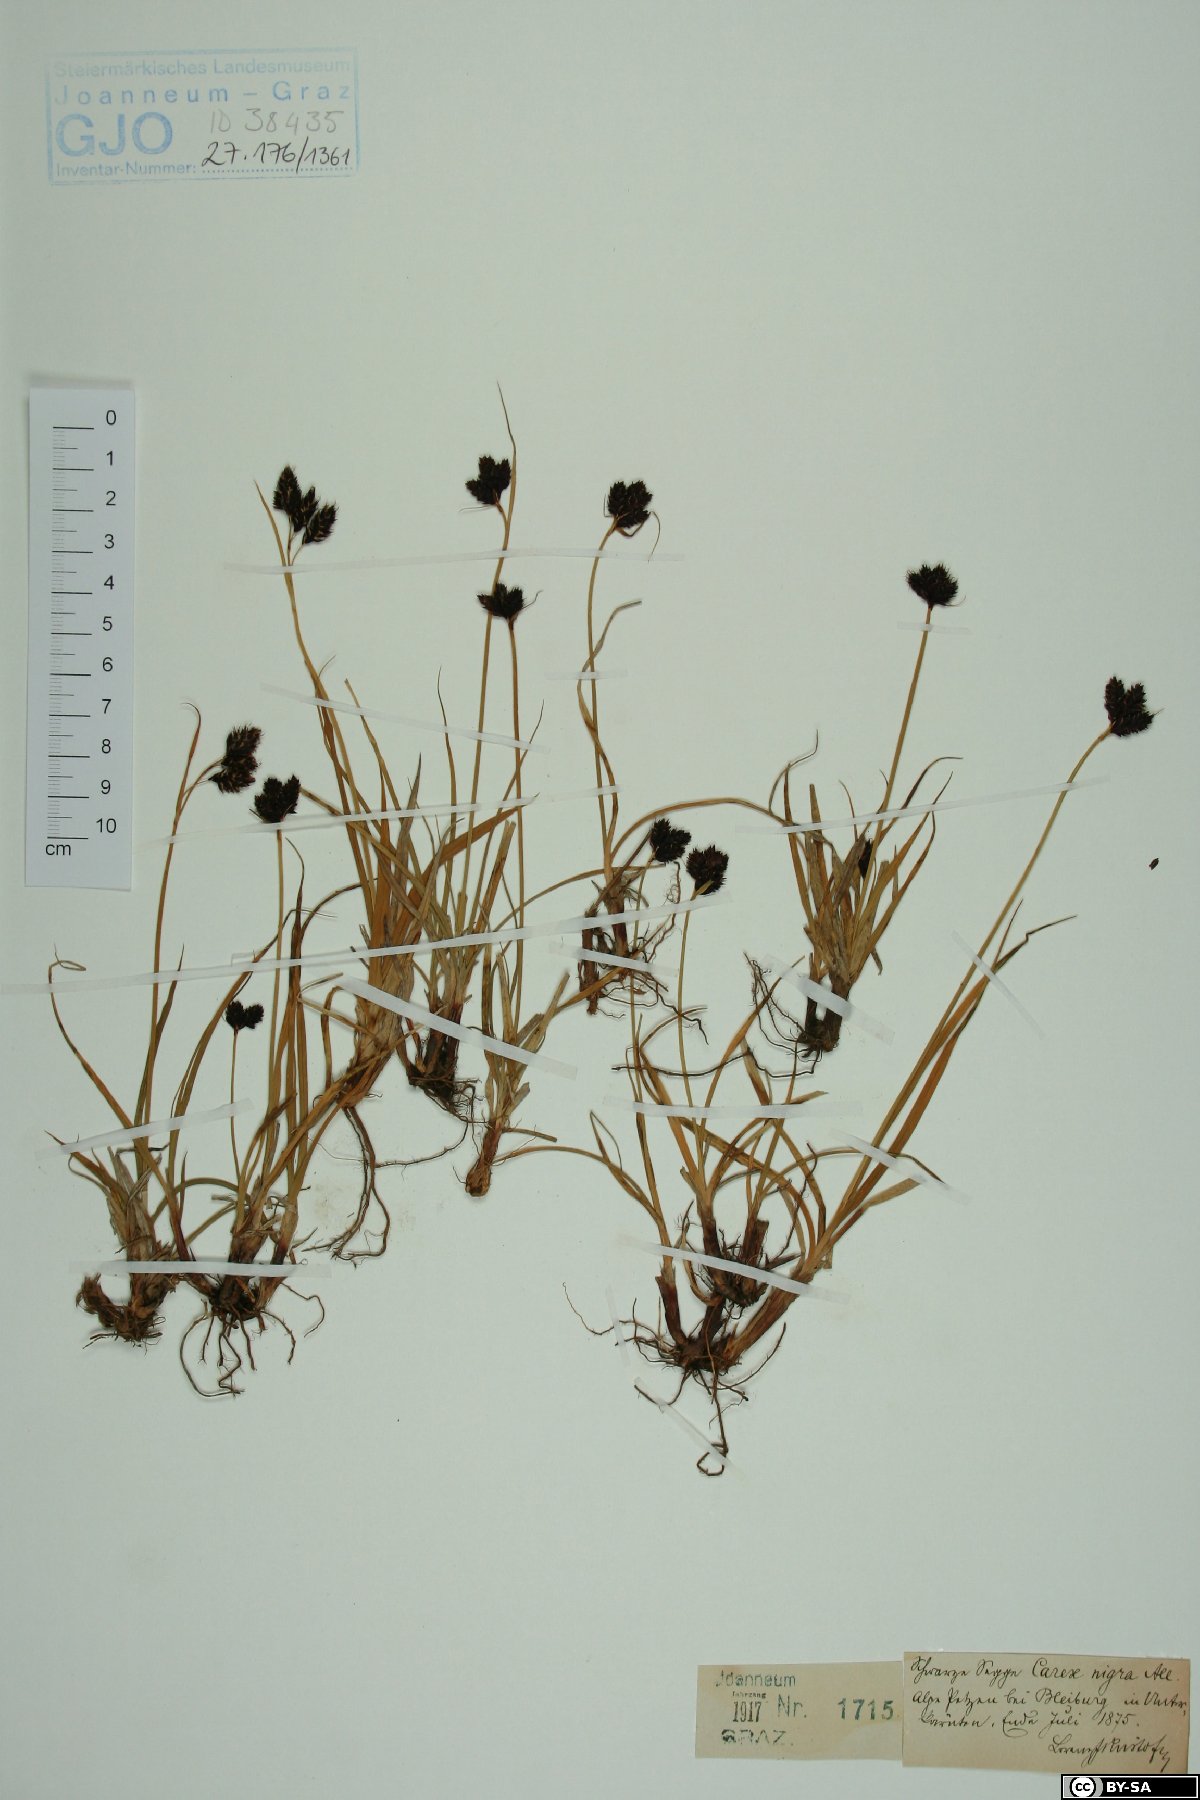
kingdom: Plantae
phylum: Tracheophyta
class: Liliopsida
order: Poales
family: Cyperaceae
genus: Carex
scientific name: Carex nigra
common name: Common sedge
